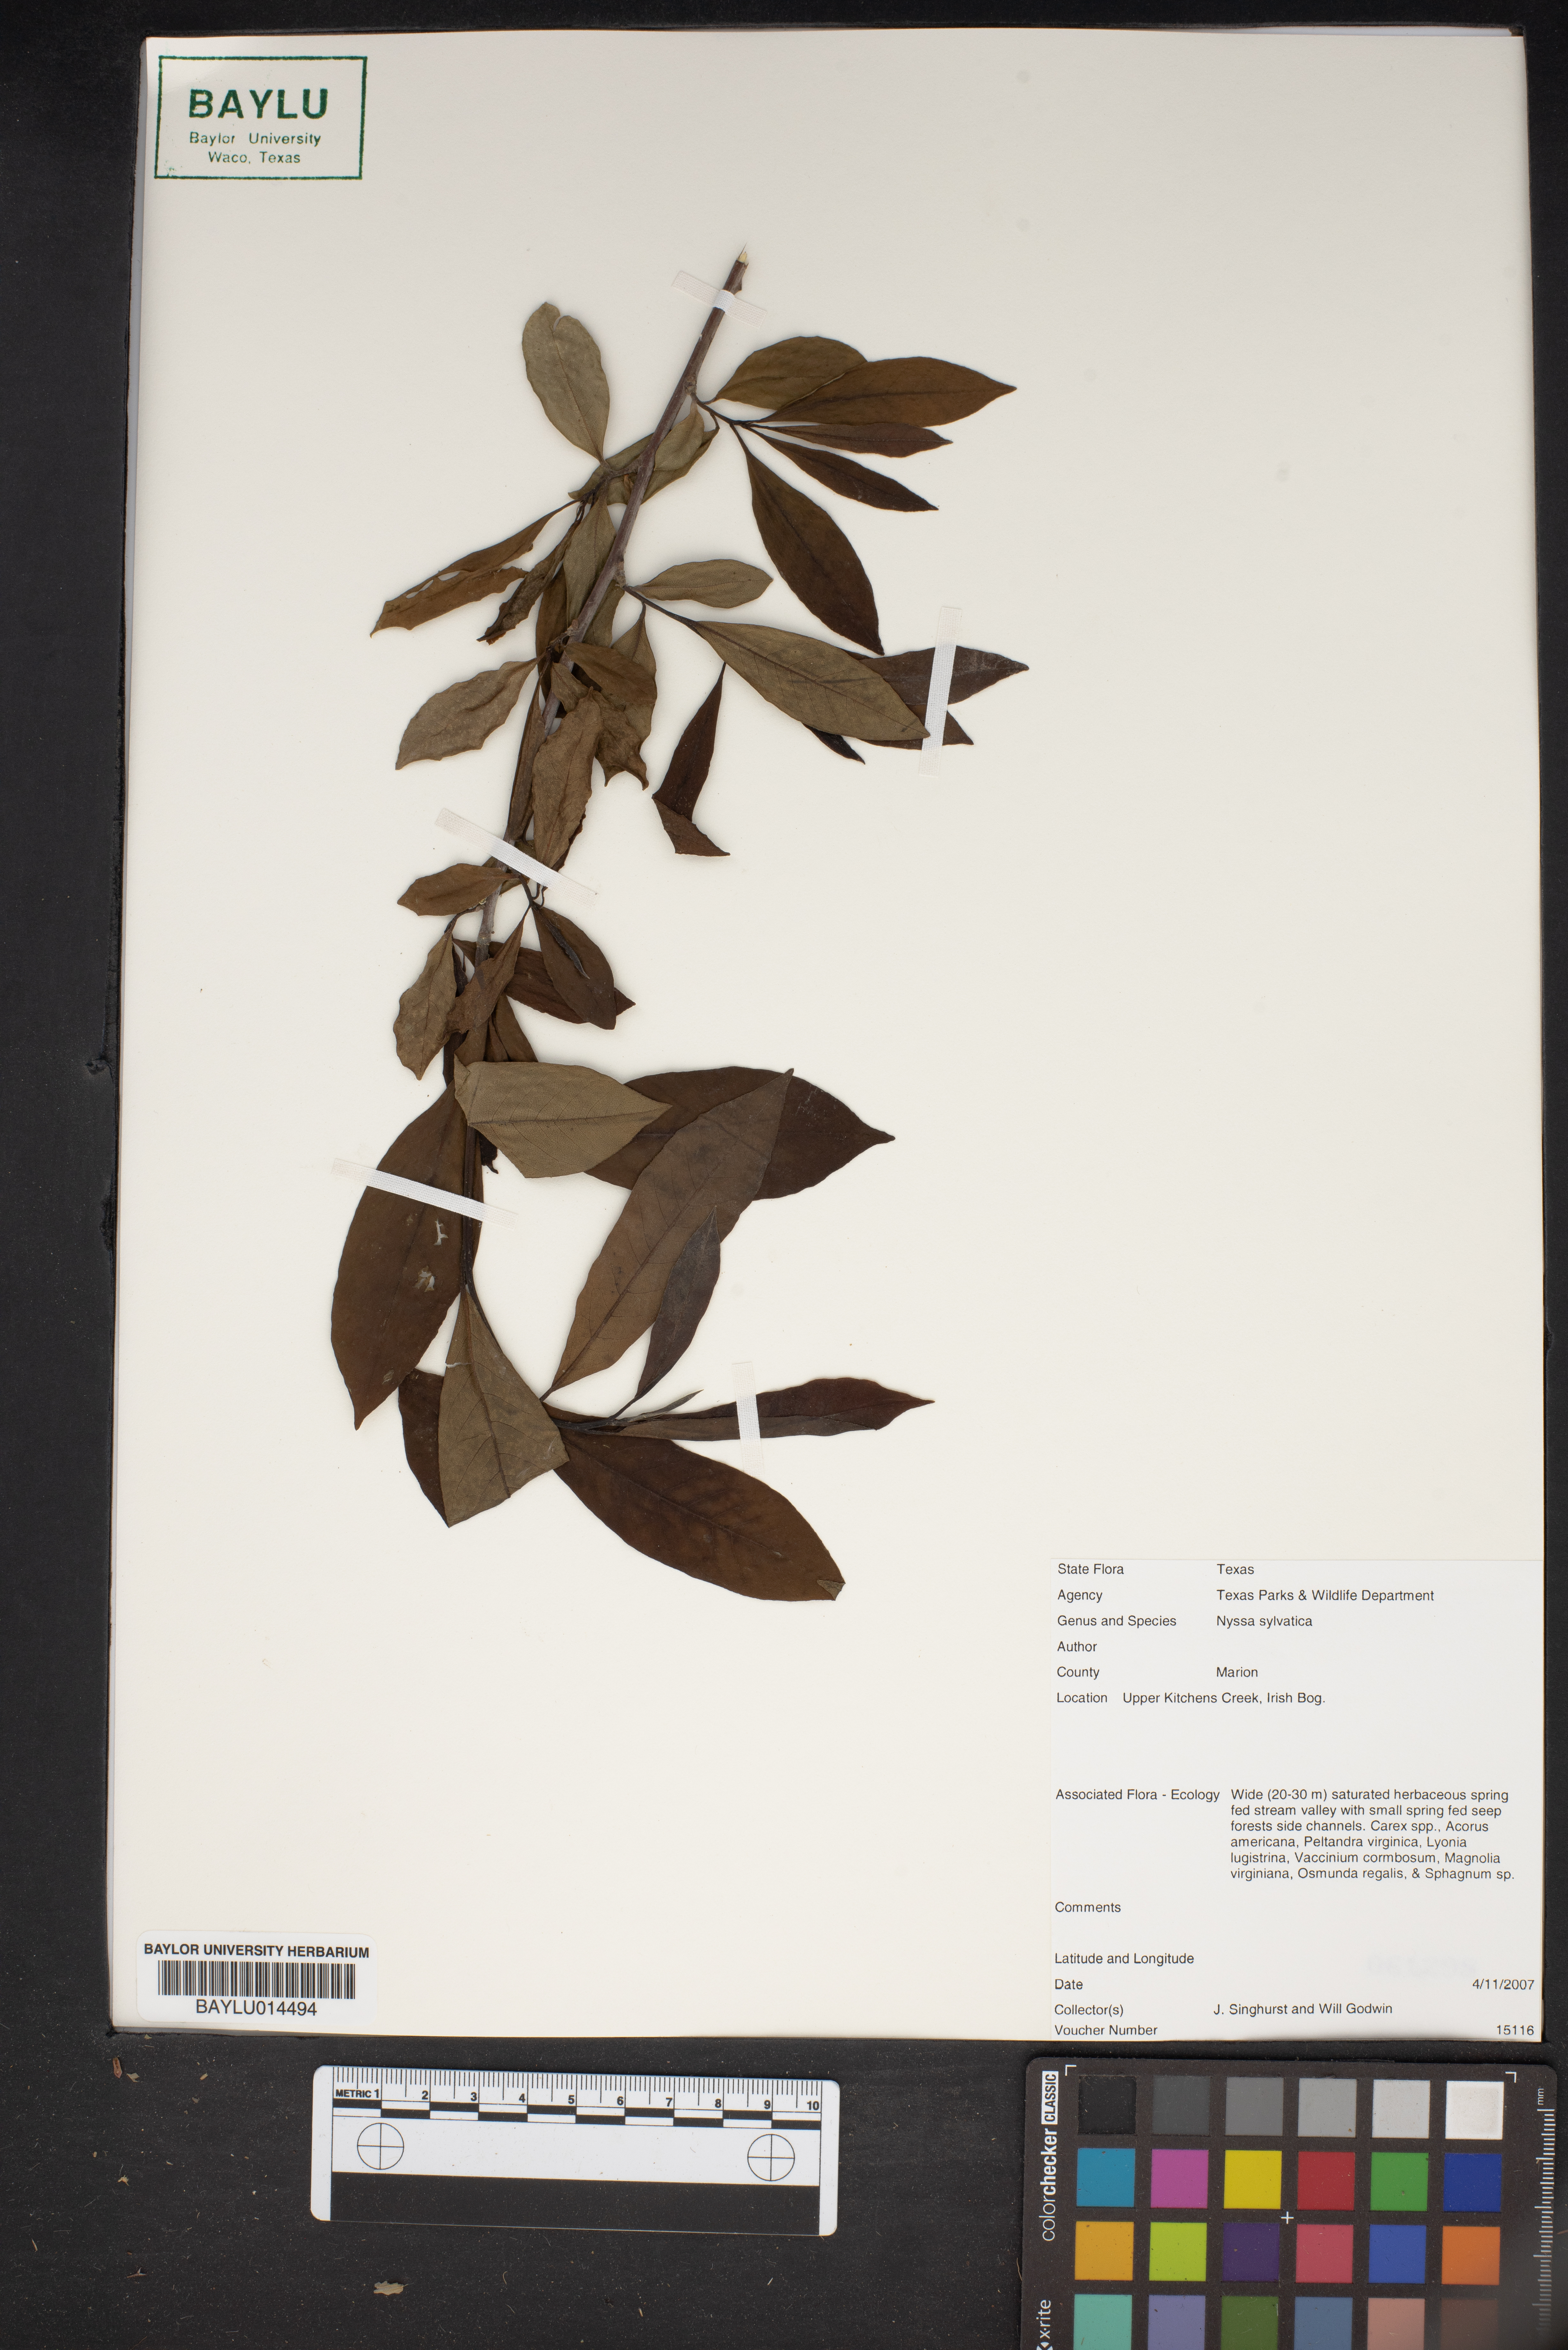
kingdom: Plantae
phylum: Tracheophyta
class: Magnoliopsida
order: Cornales
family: Nyssaceae
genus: Nyssa
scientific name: Nyssa sylvatica
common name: Black tupelo
